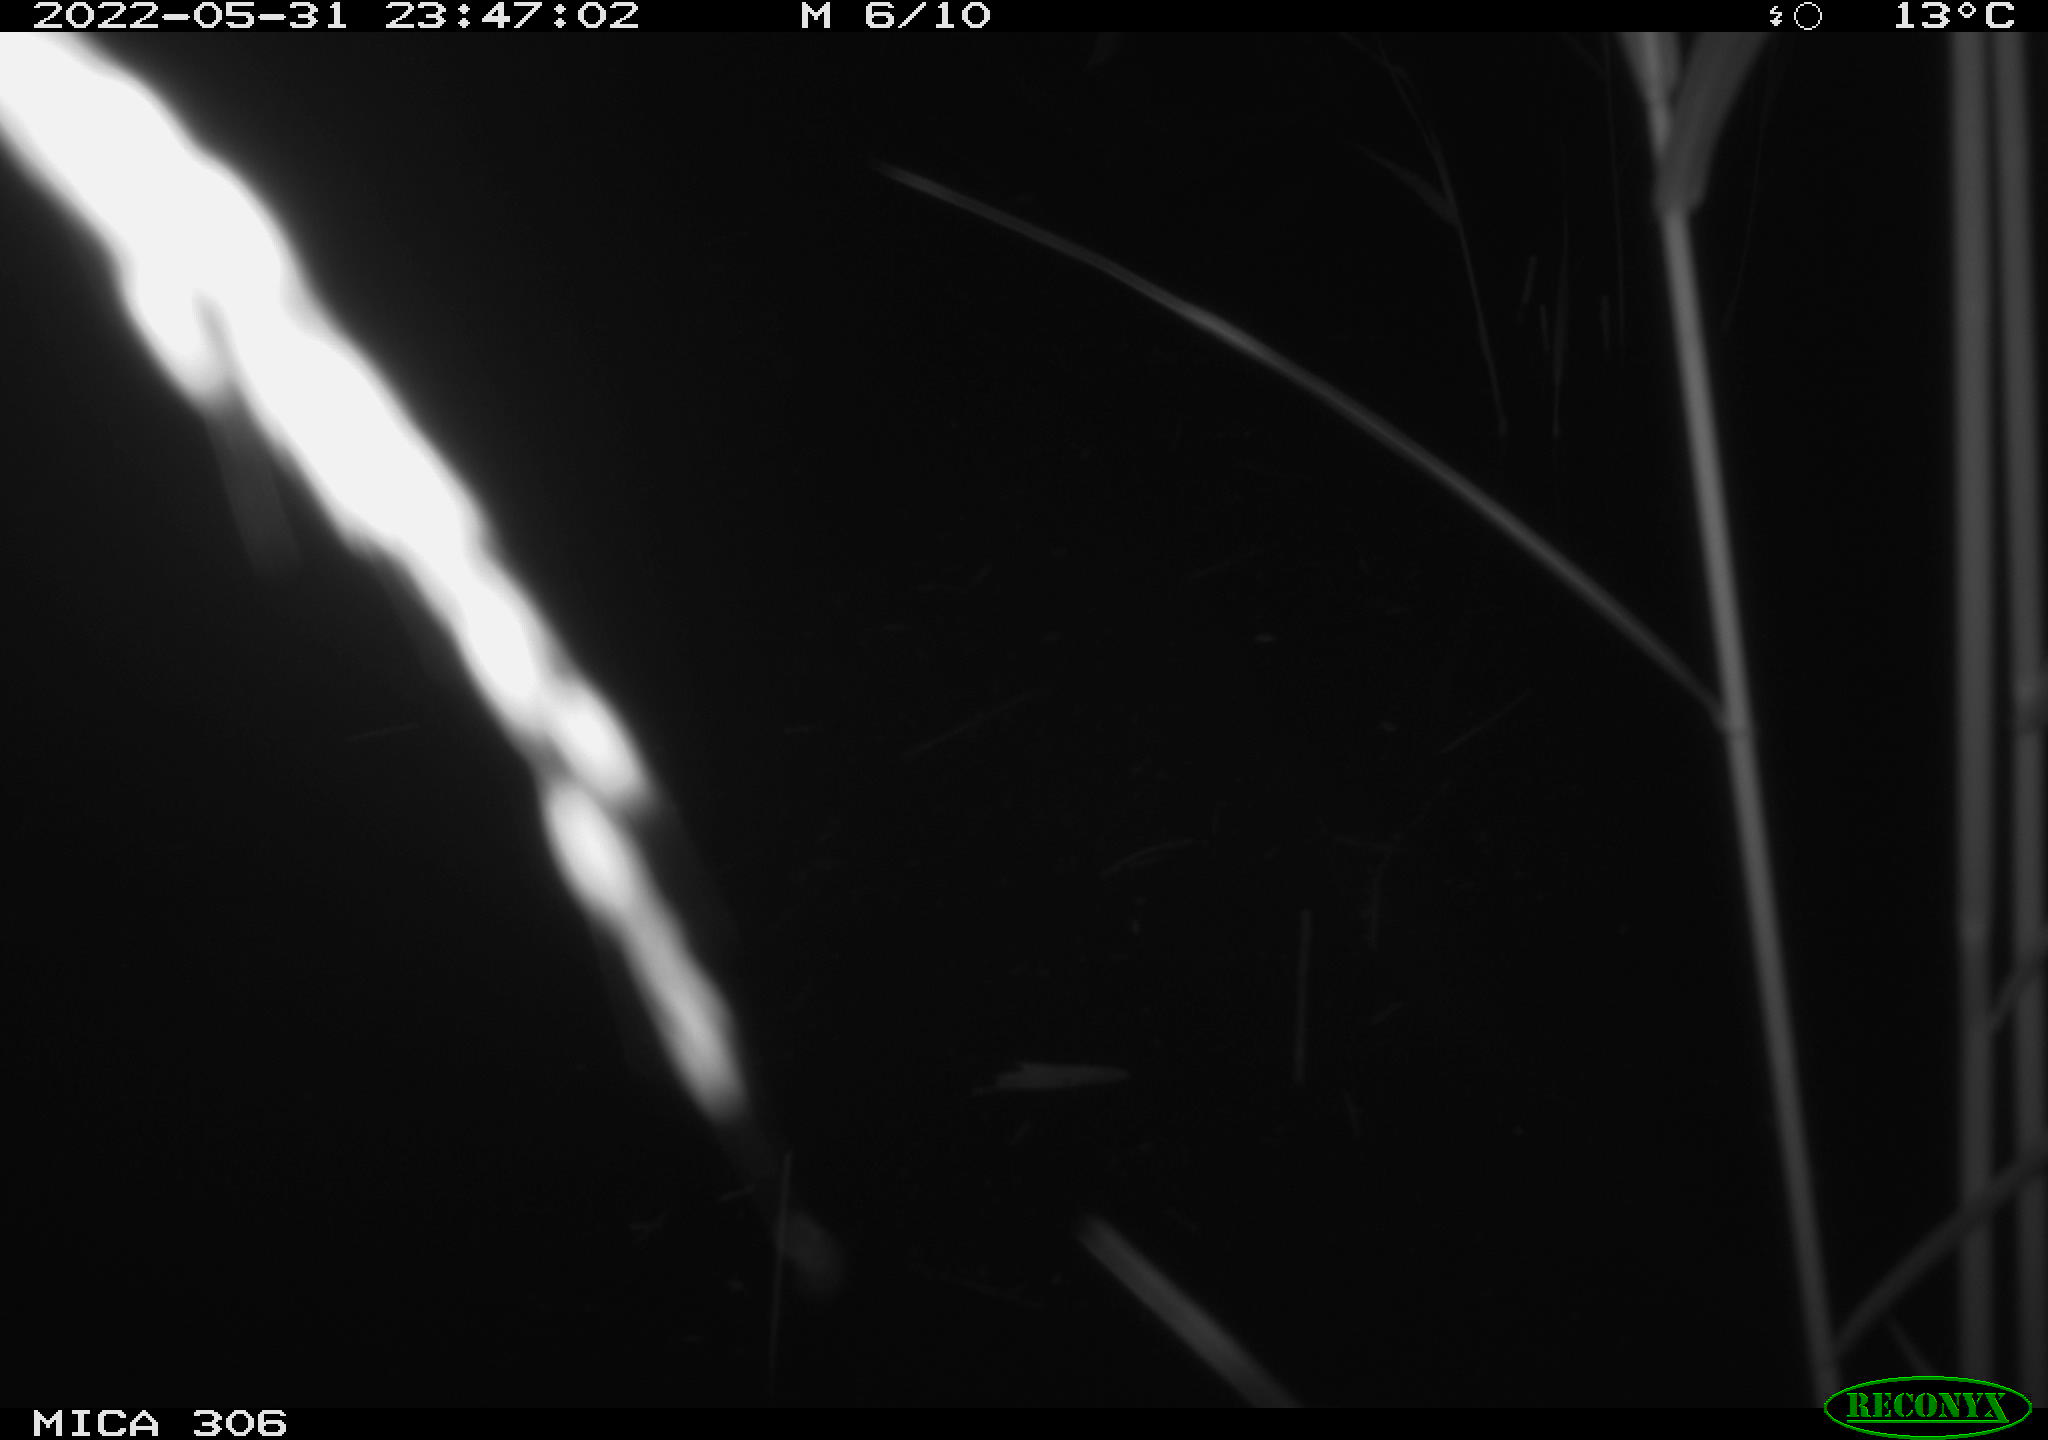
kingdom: Animalia
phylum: Chordata
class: Mammalia
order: Rodentia
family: Cricetidae
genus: Ondatra
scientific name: Ondatra zibethicus
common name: Muskrat
